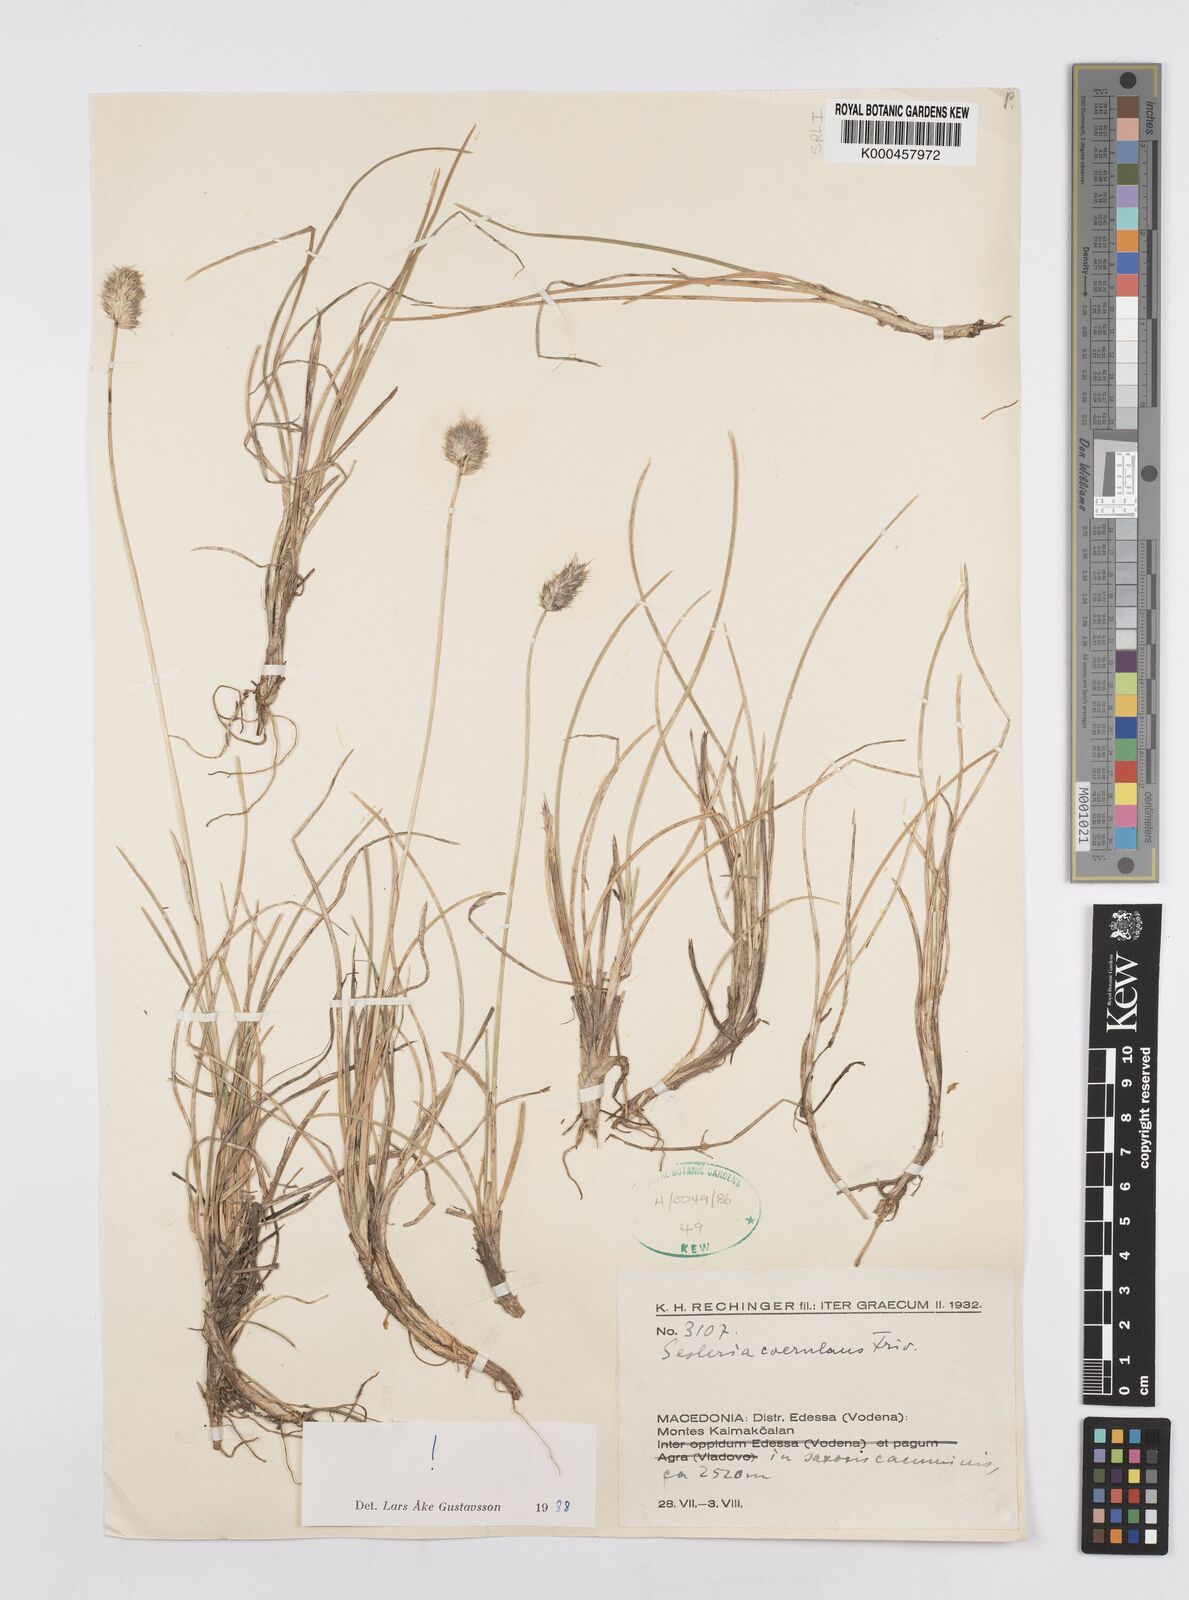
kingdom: Plantae
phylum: Tracheophyta
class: Liliopsida
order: Poales
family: Poaceae
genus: Sesleria
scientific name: Sesleria coerulans
